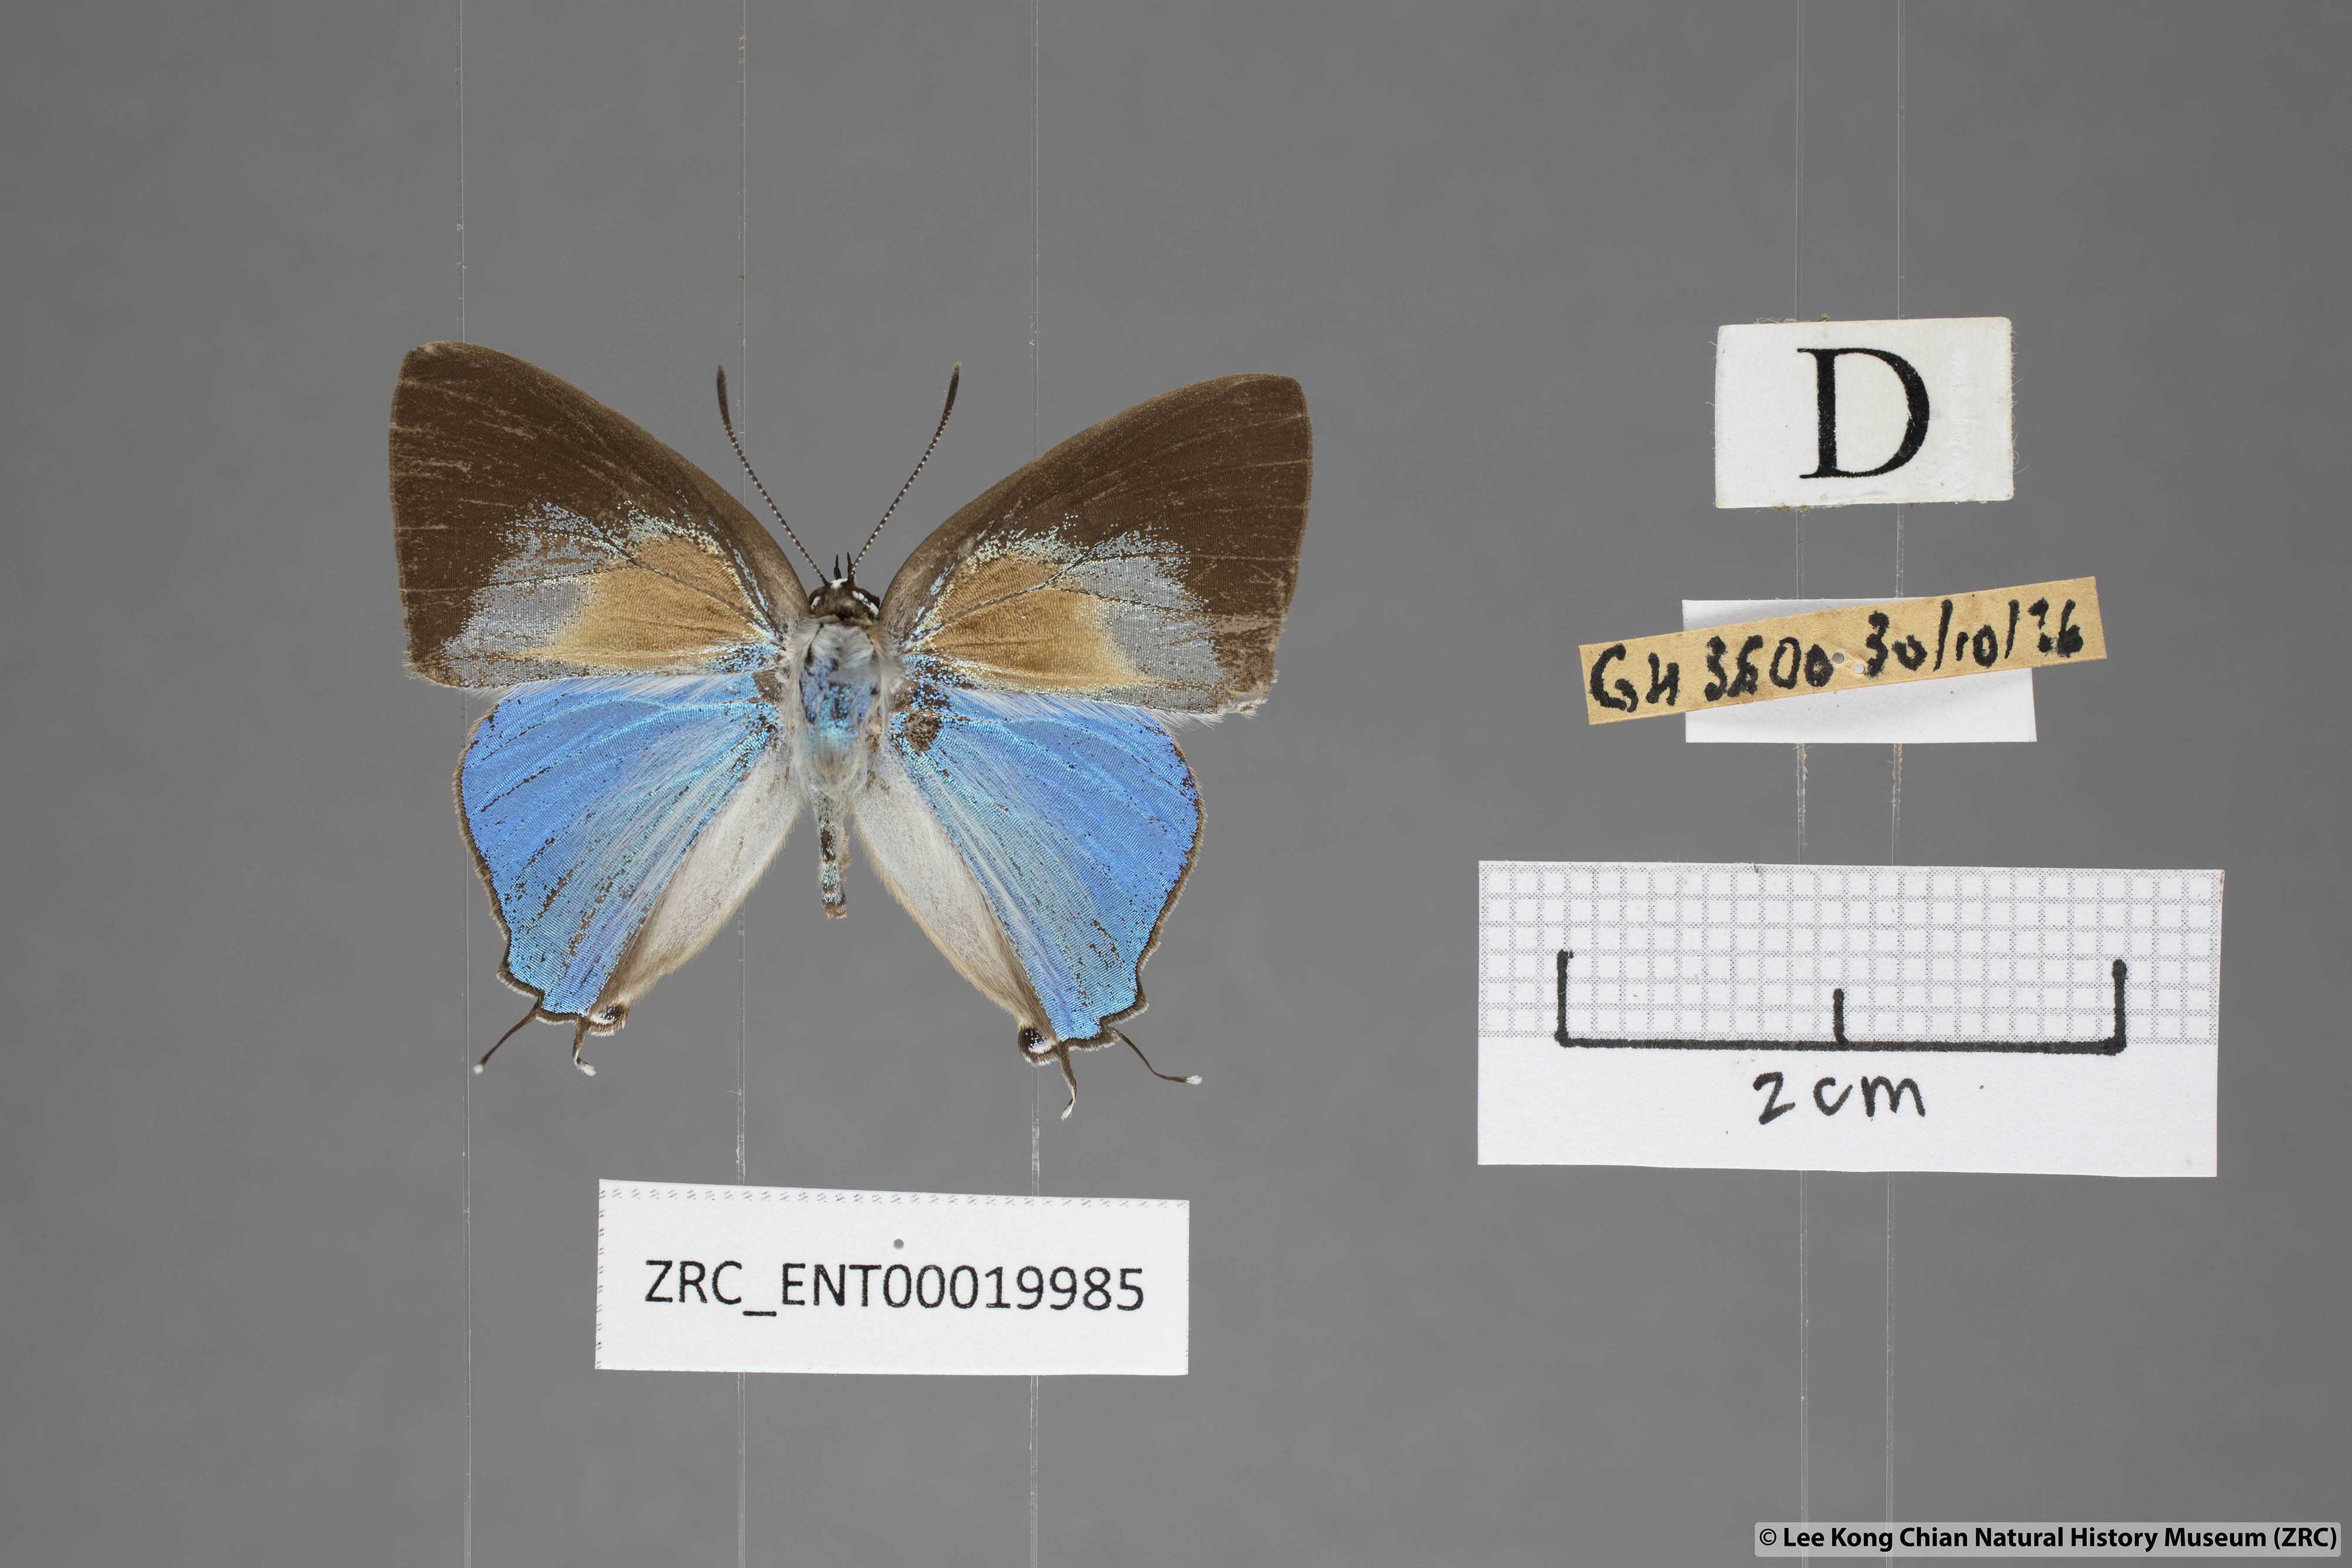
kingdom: Animalia
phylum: Arthropoda
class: Insecta
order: Lepidoptera
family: Lycaenidae
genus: Bullis
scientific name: Bullis elioti
